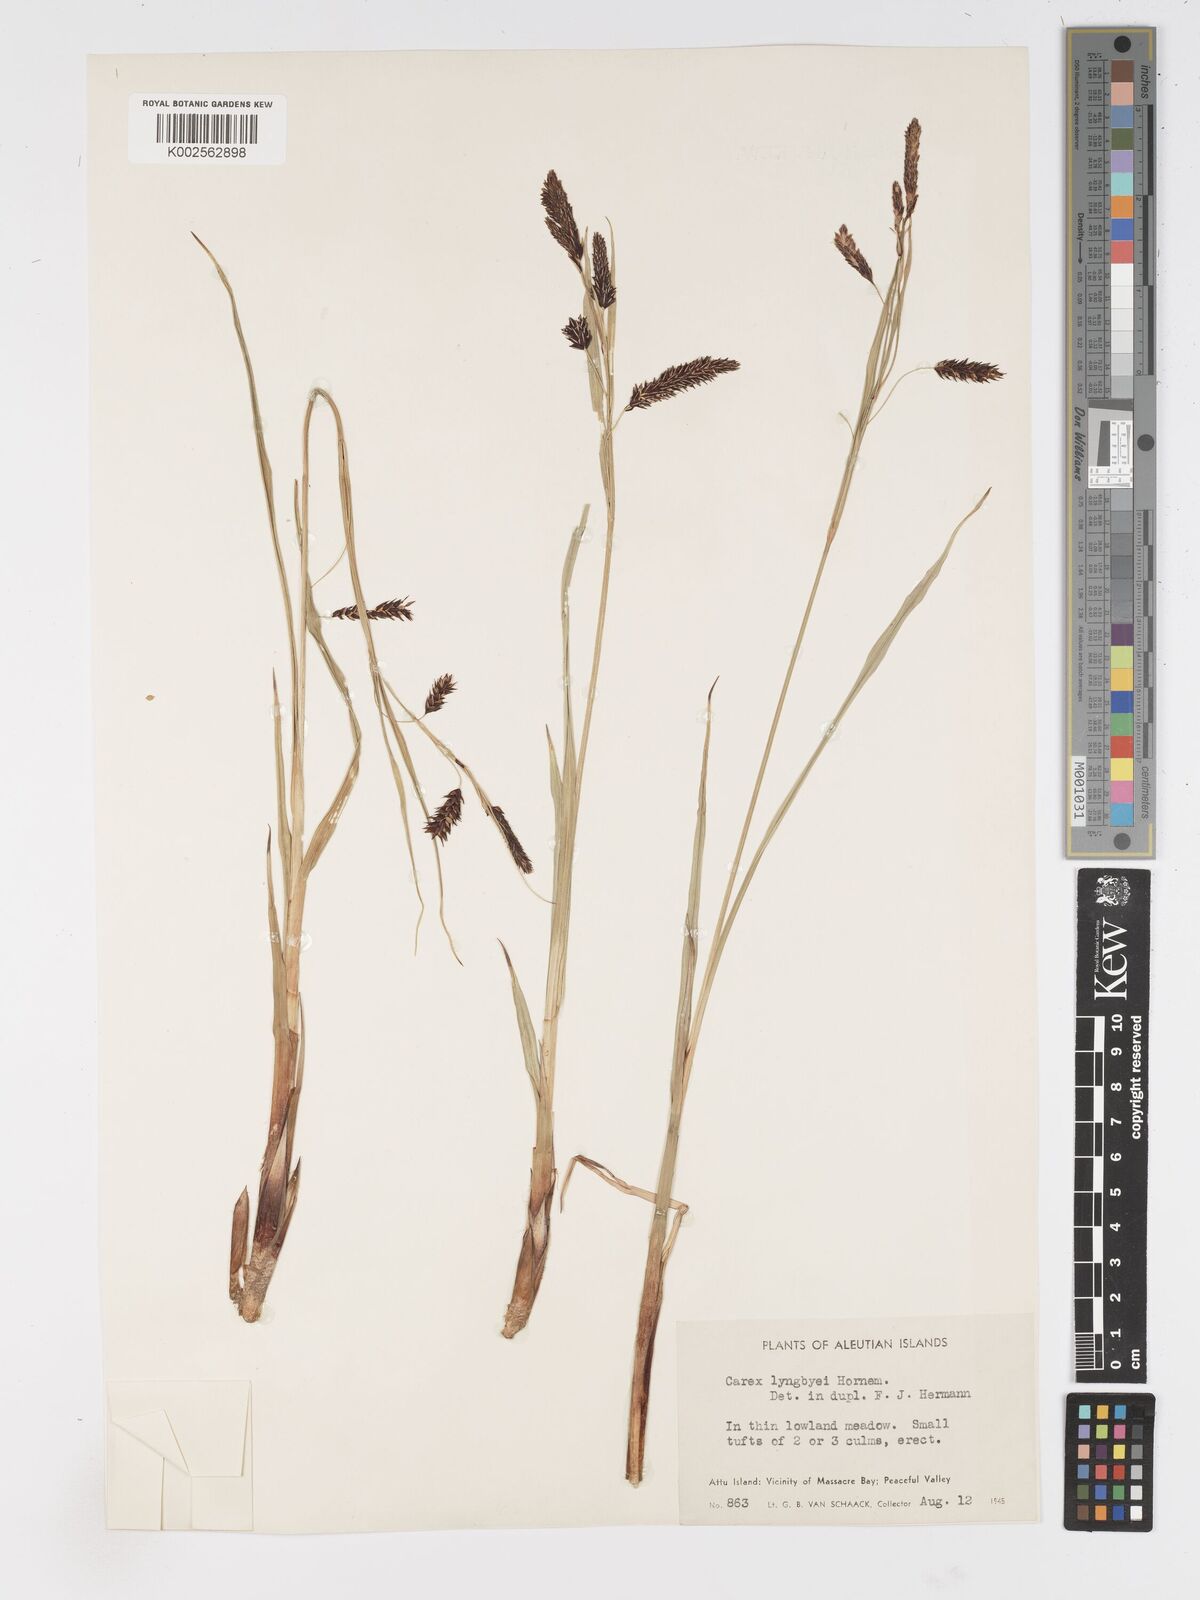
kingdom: Plantae
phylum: Tracheophyta
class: Liliopsida
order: Poales
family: Cyperaceae
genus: Carex
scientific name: Carex lyngbyei
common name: Lyngbye's sedge
